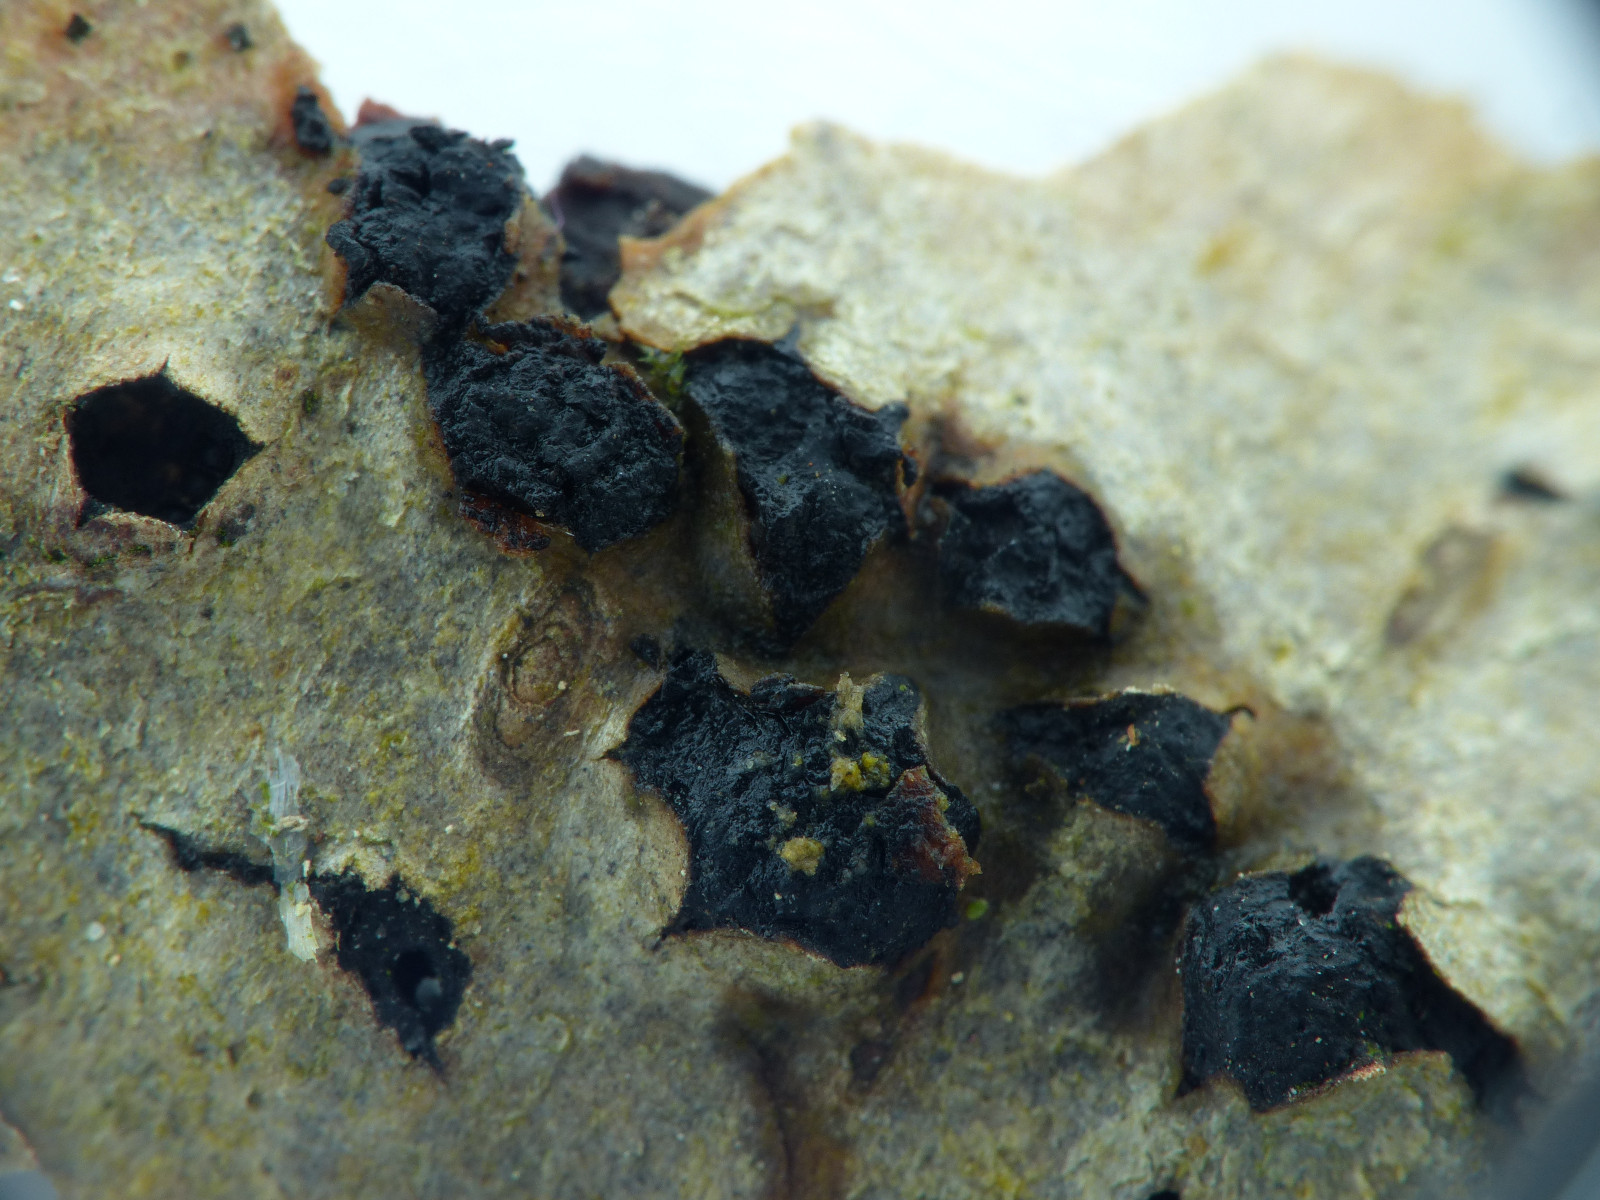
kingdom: Fungi
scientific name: Fungi
